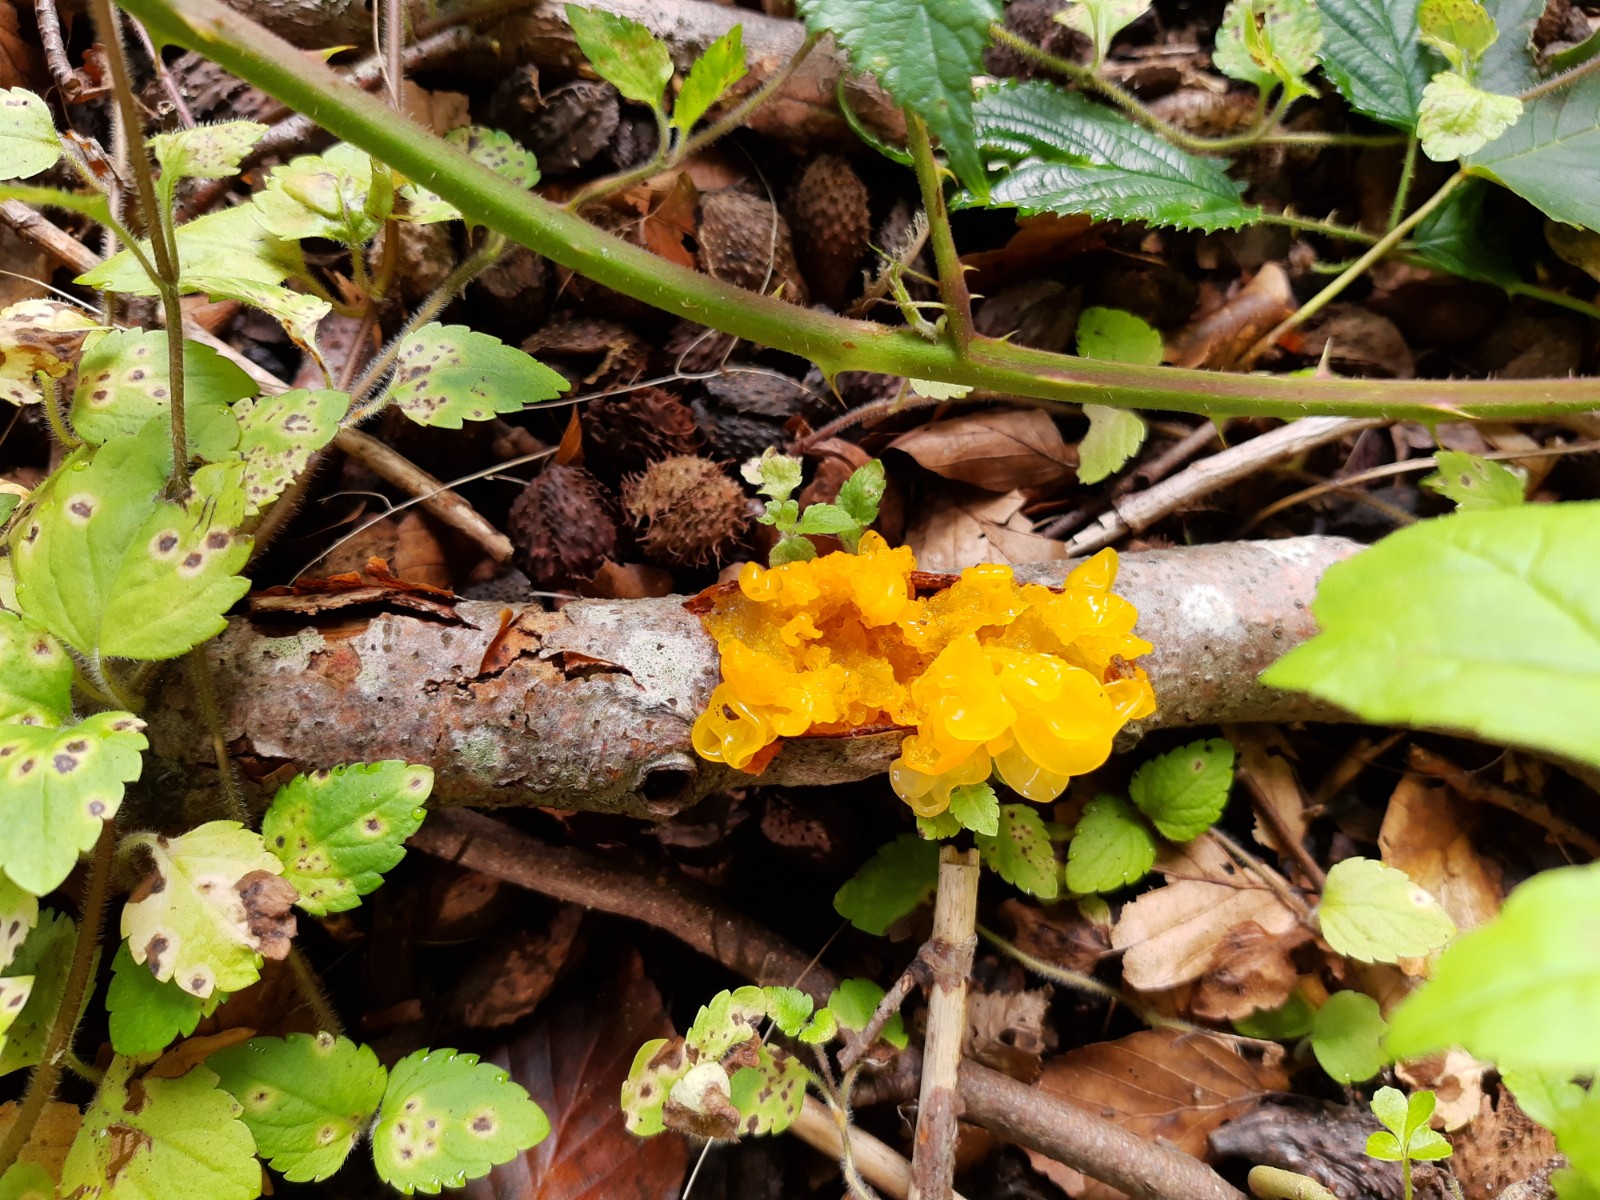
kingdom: Fungi
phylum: Basidiomycota
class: Tremellomycetes
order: Tremellales
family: Tremellaceae
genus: Tremella
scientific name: Tremella mesenterica
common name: gul bævresvamp
